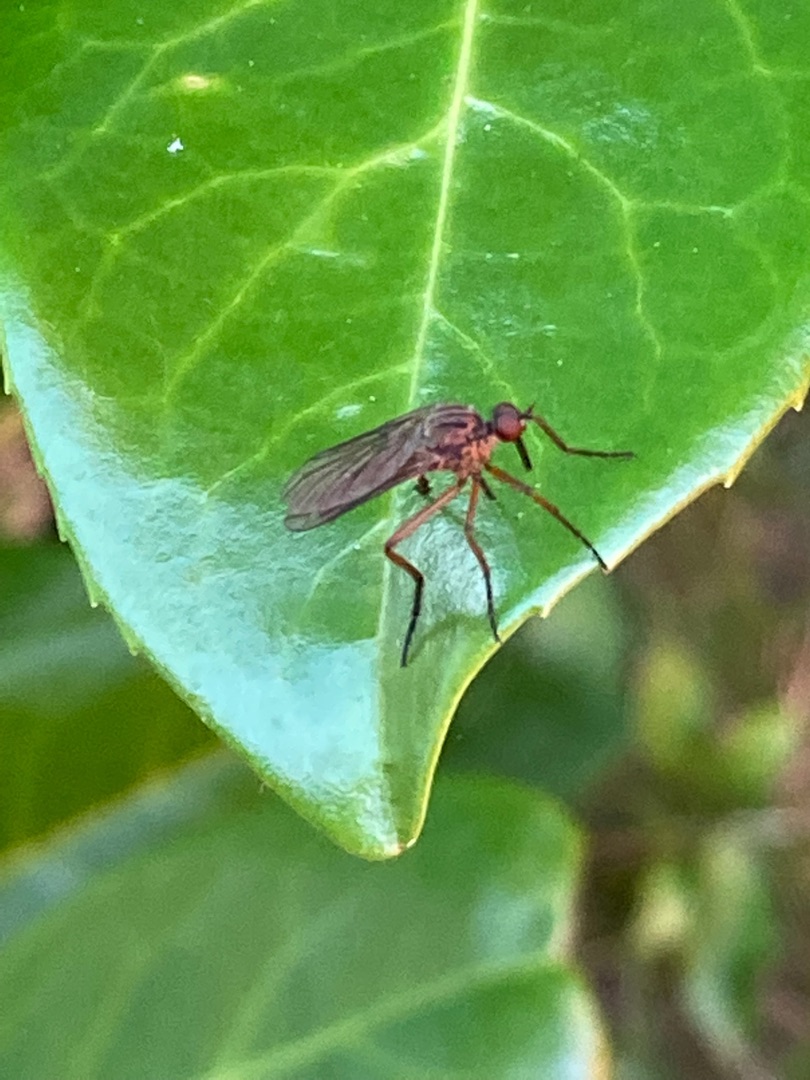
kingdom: Animalia
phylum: Arthropoda
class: Insecta
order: Diptera
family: Empididae
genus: Empis
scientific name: Empis livida
